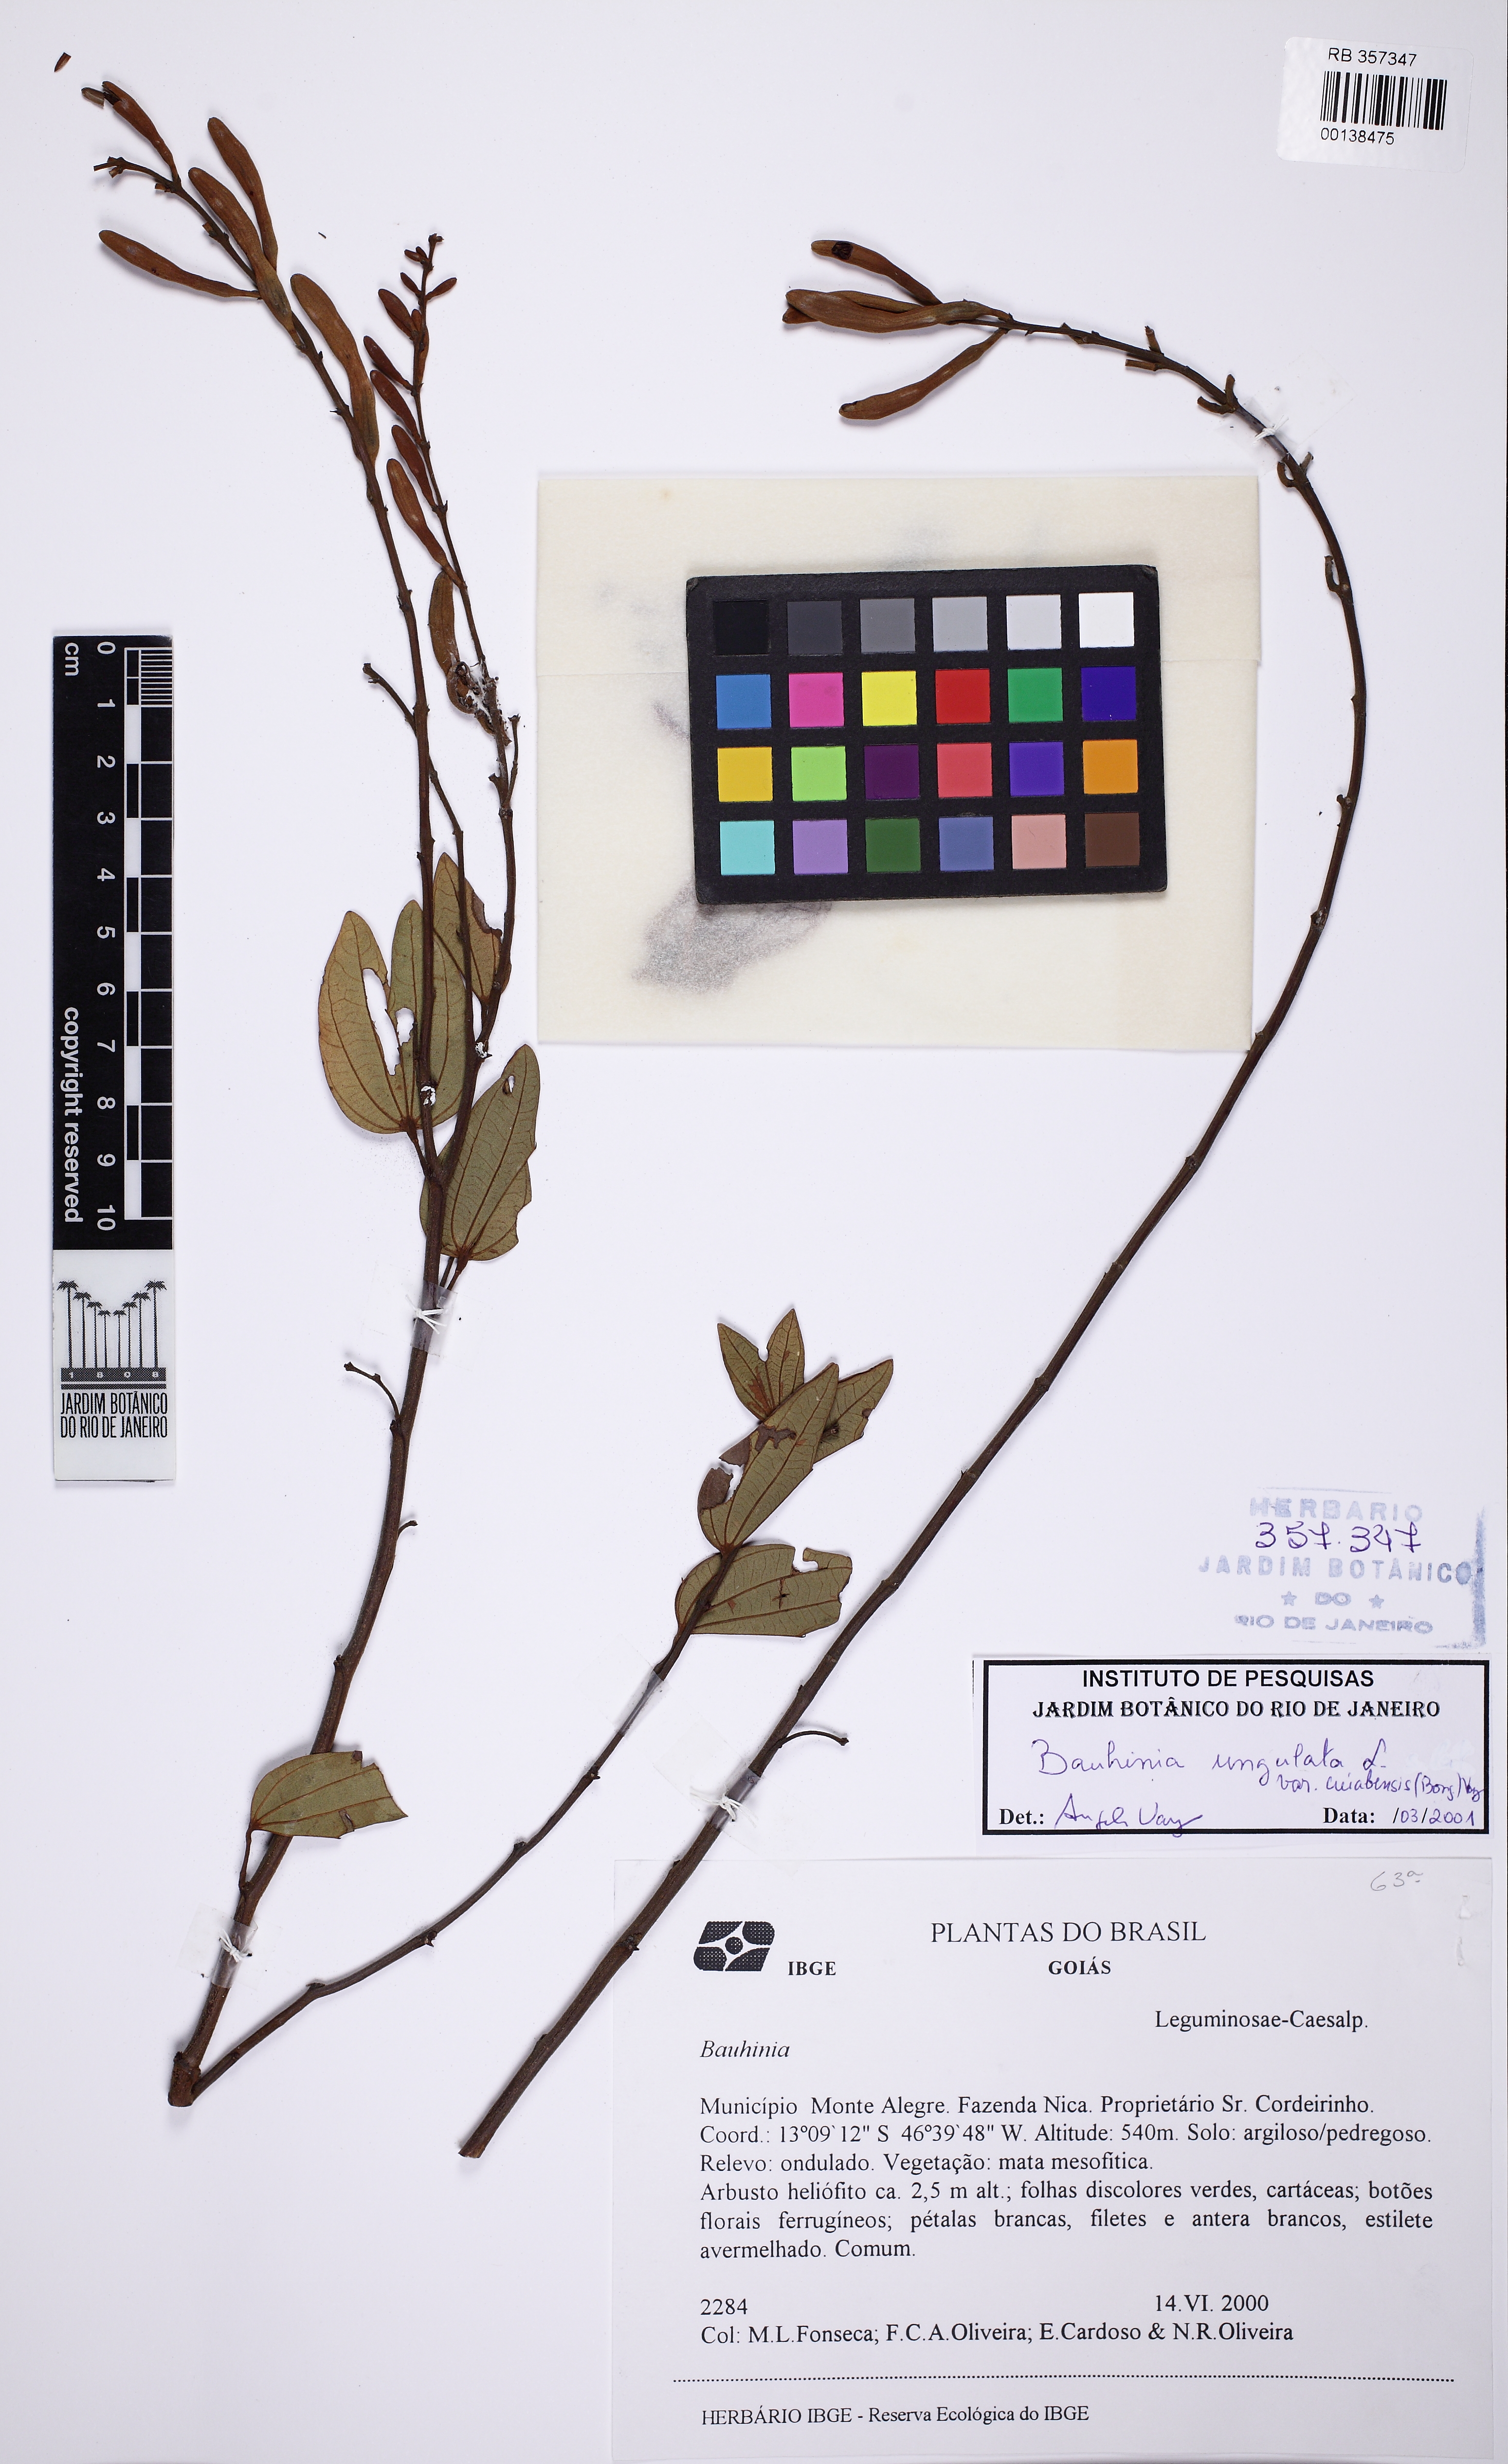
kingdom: Plantae
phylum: Tracheophyta
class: Magnoliopsida
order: Fabales
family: Fabaceae
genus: Bauhinia
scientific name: Bauhinia ungulata
